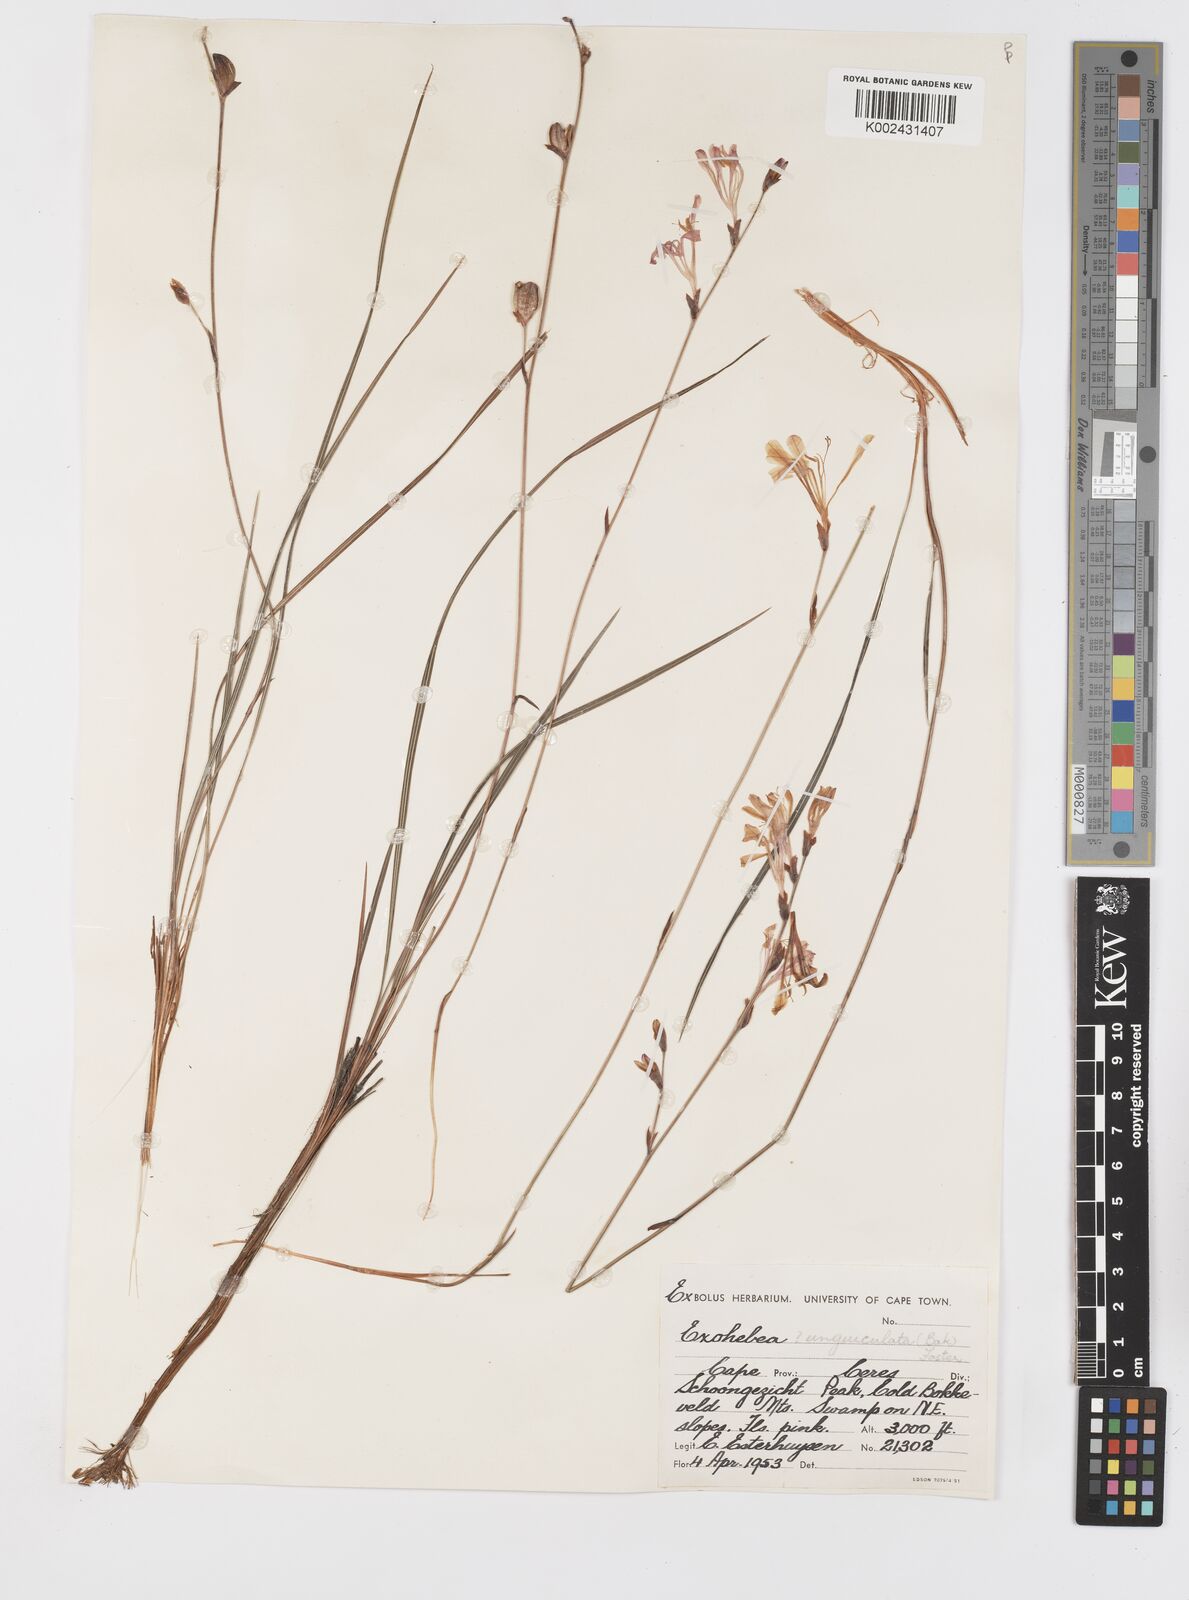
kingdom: Plantae
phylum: Tracheophyta
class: Liliopsida
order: Asparagales
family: Iridaceae
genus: Tritoniopsis
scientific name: Tritoniopsis unguicularis
